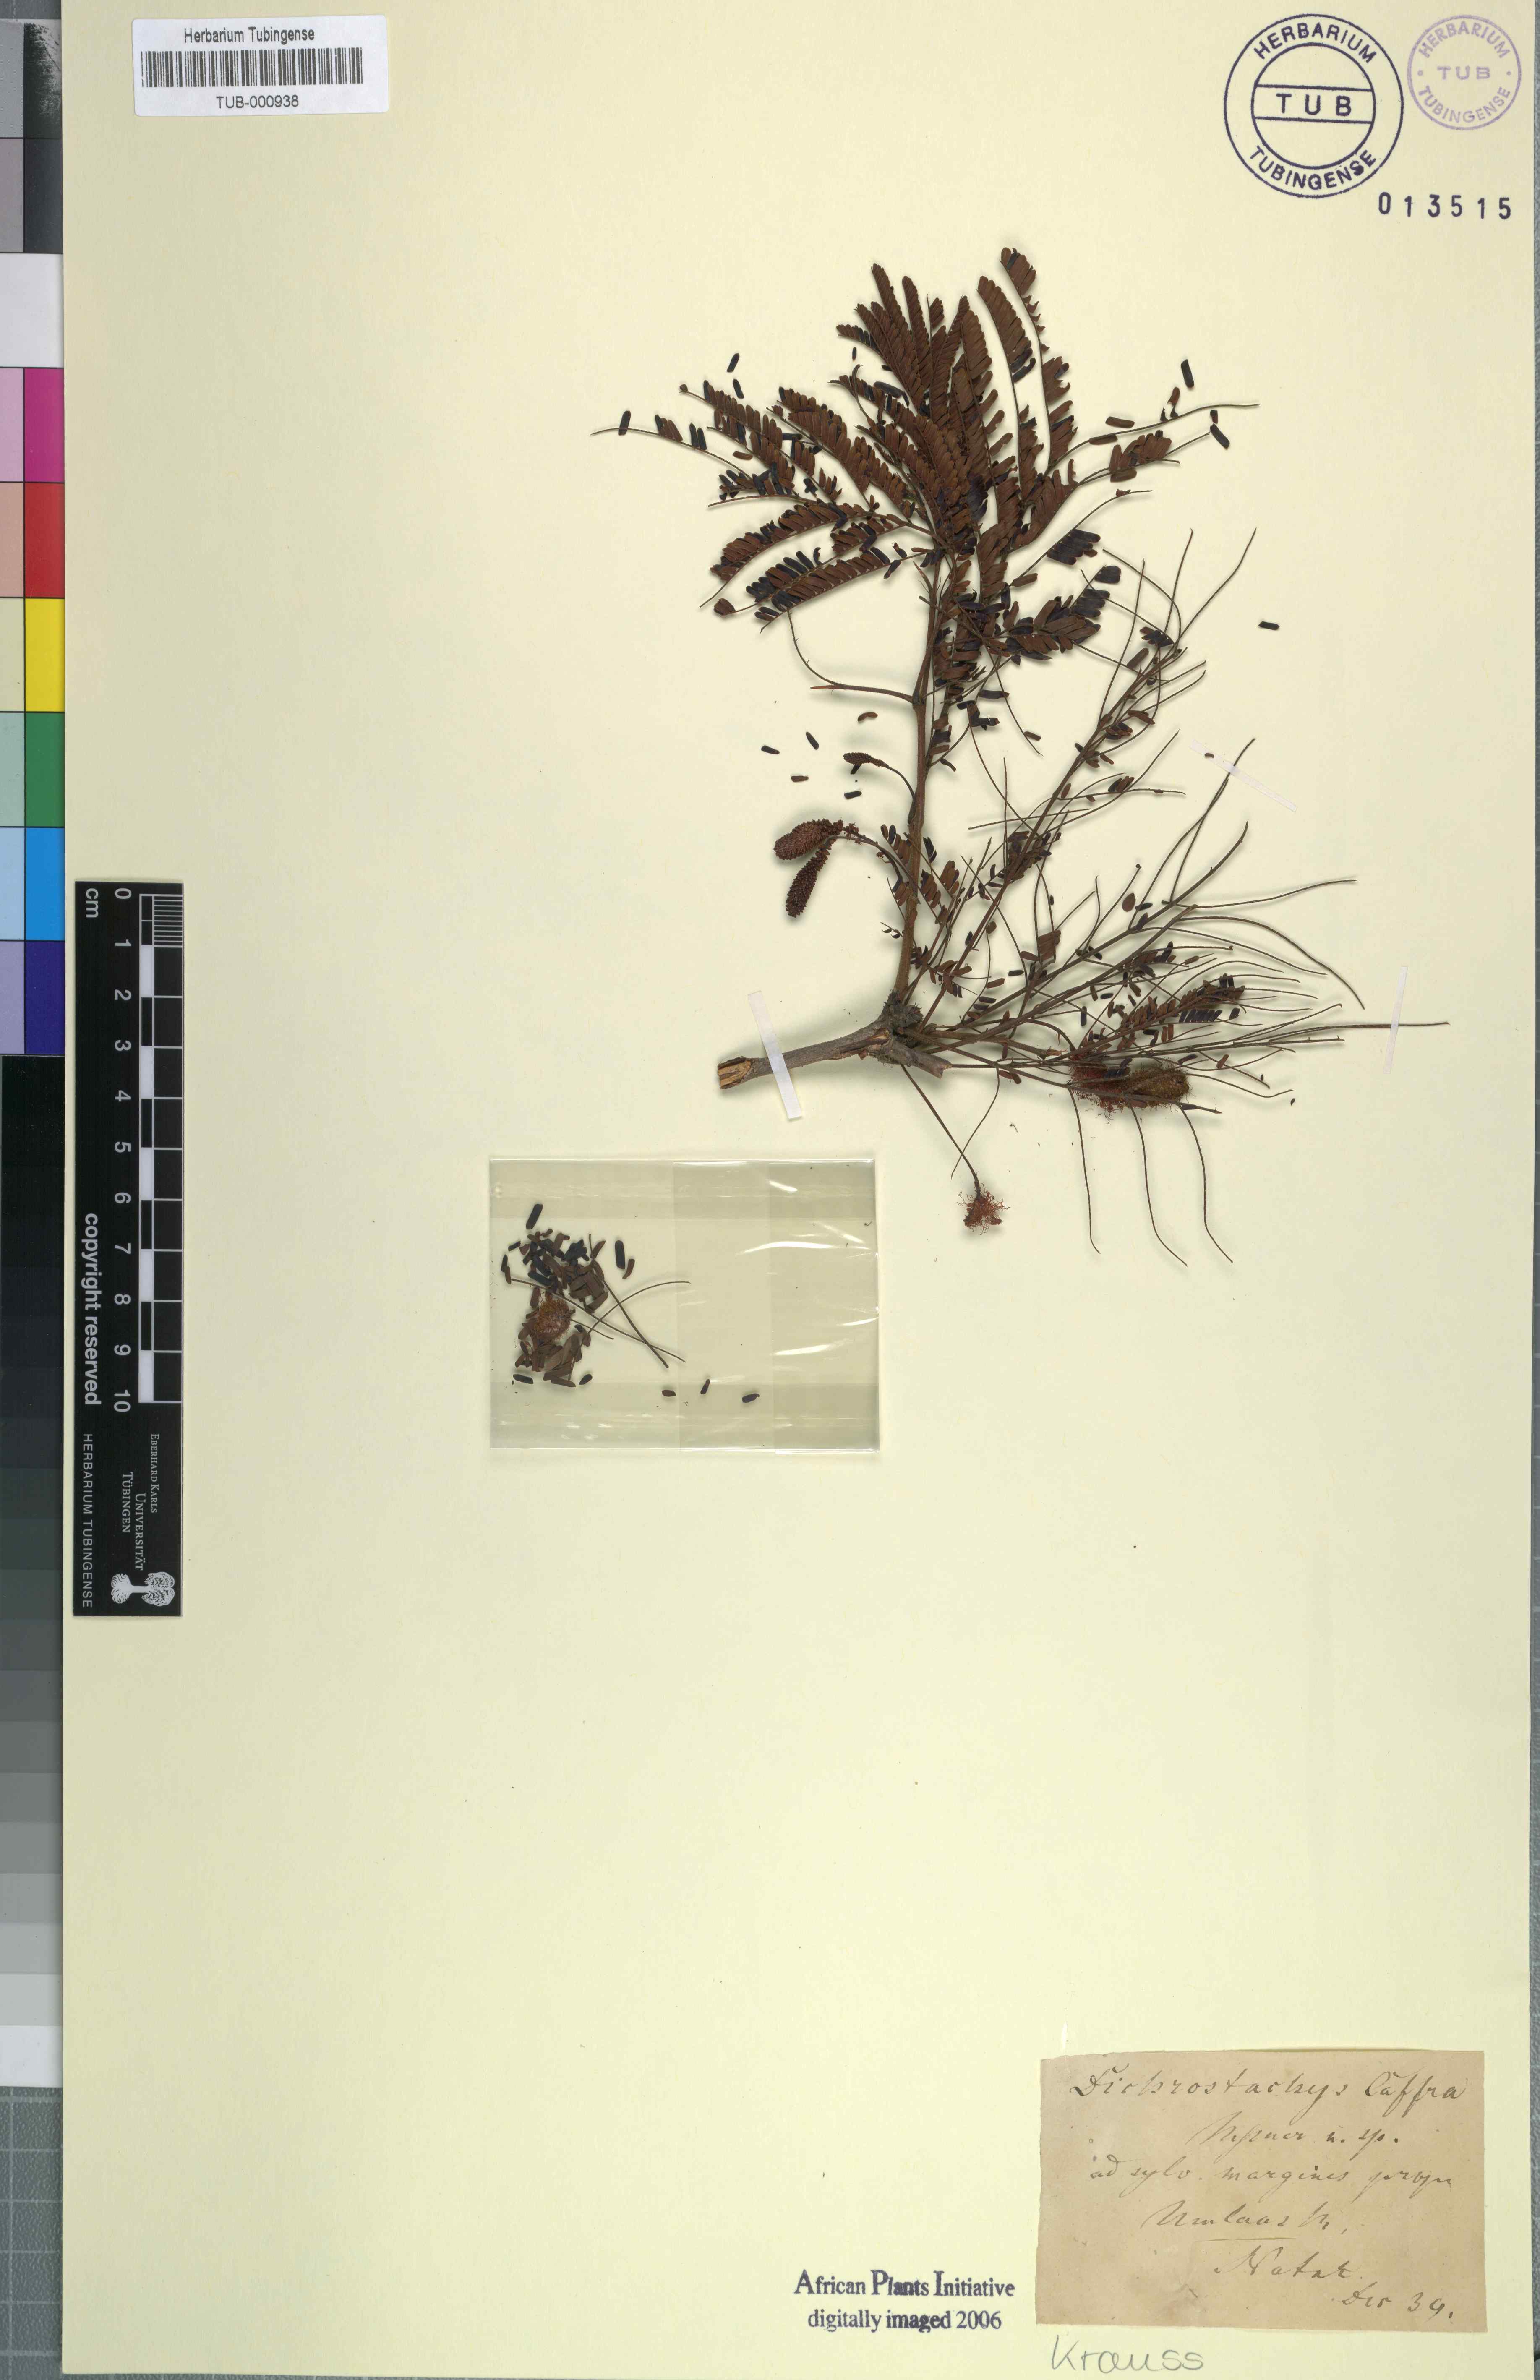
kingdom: Plantae
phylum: Tracheophyta
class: Magnoliopsida
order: Fabales
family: Fabaceae
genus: Dichrostachys
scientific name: Dichrostachys cinerea
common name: Sicklebush
